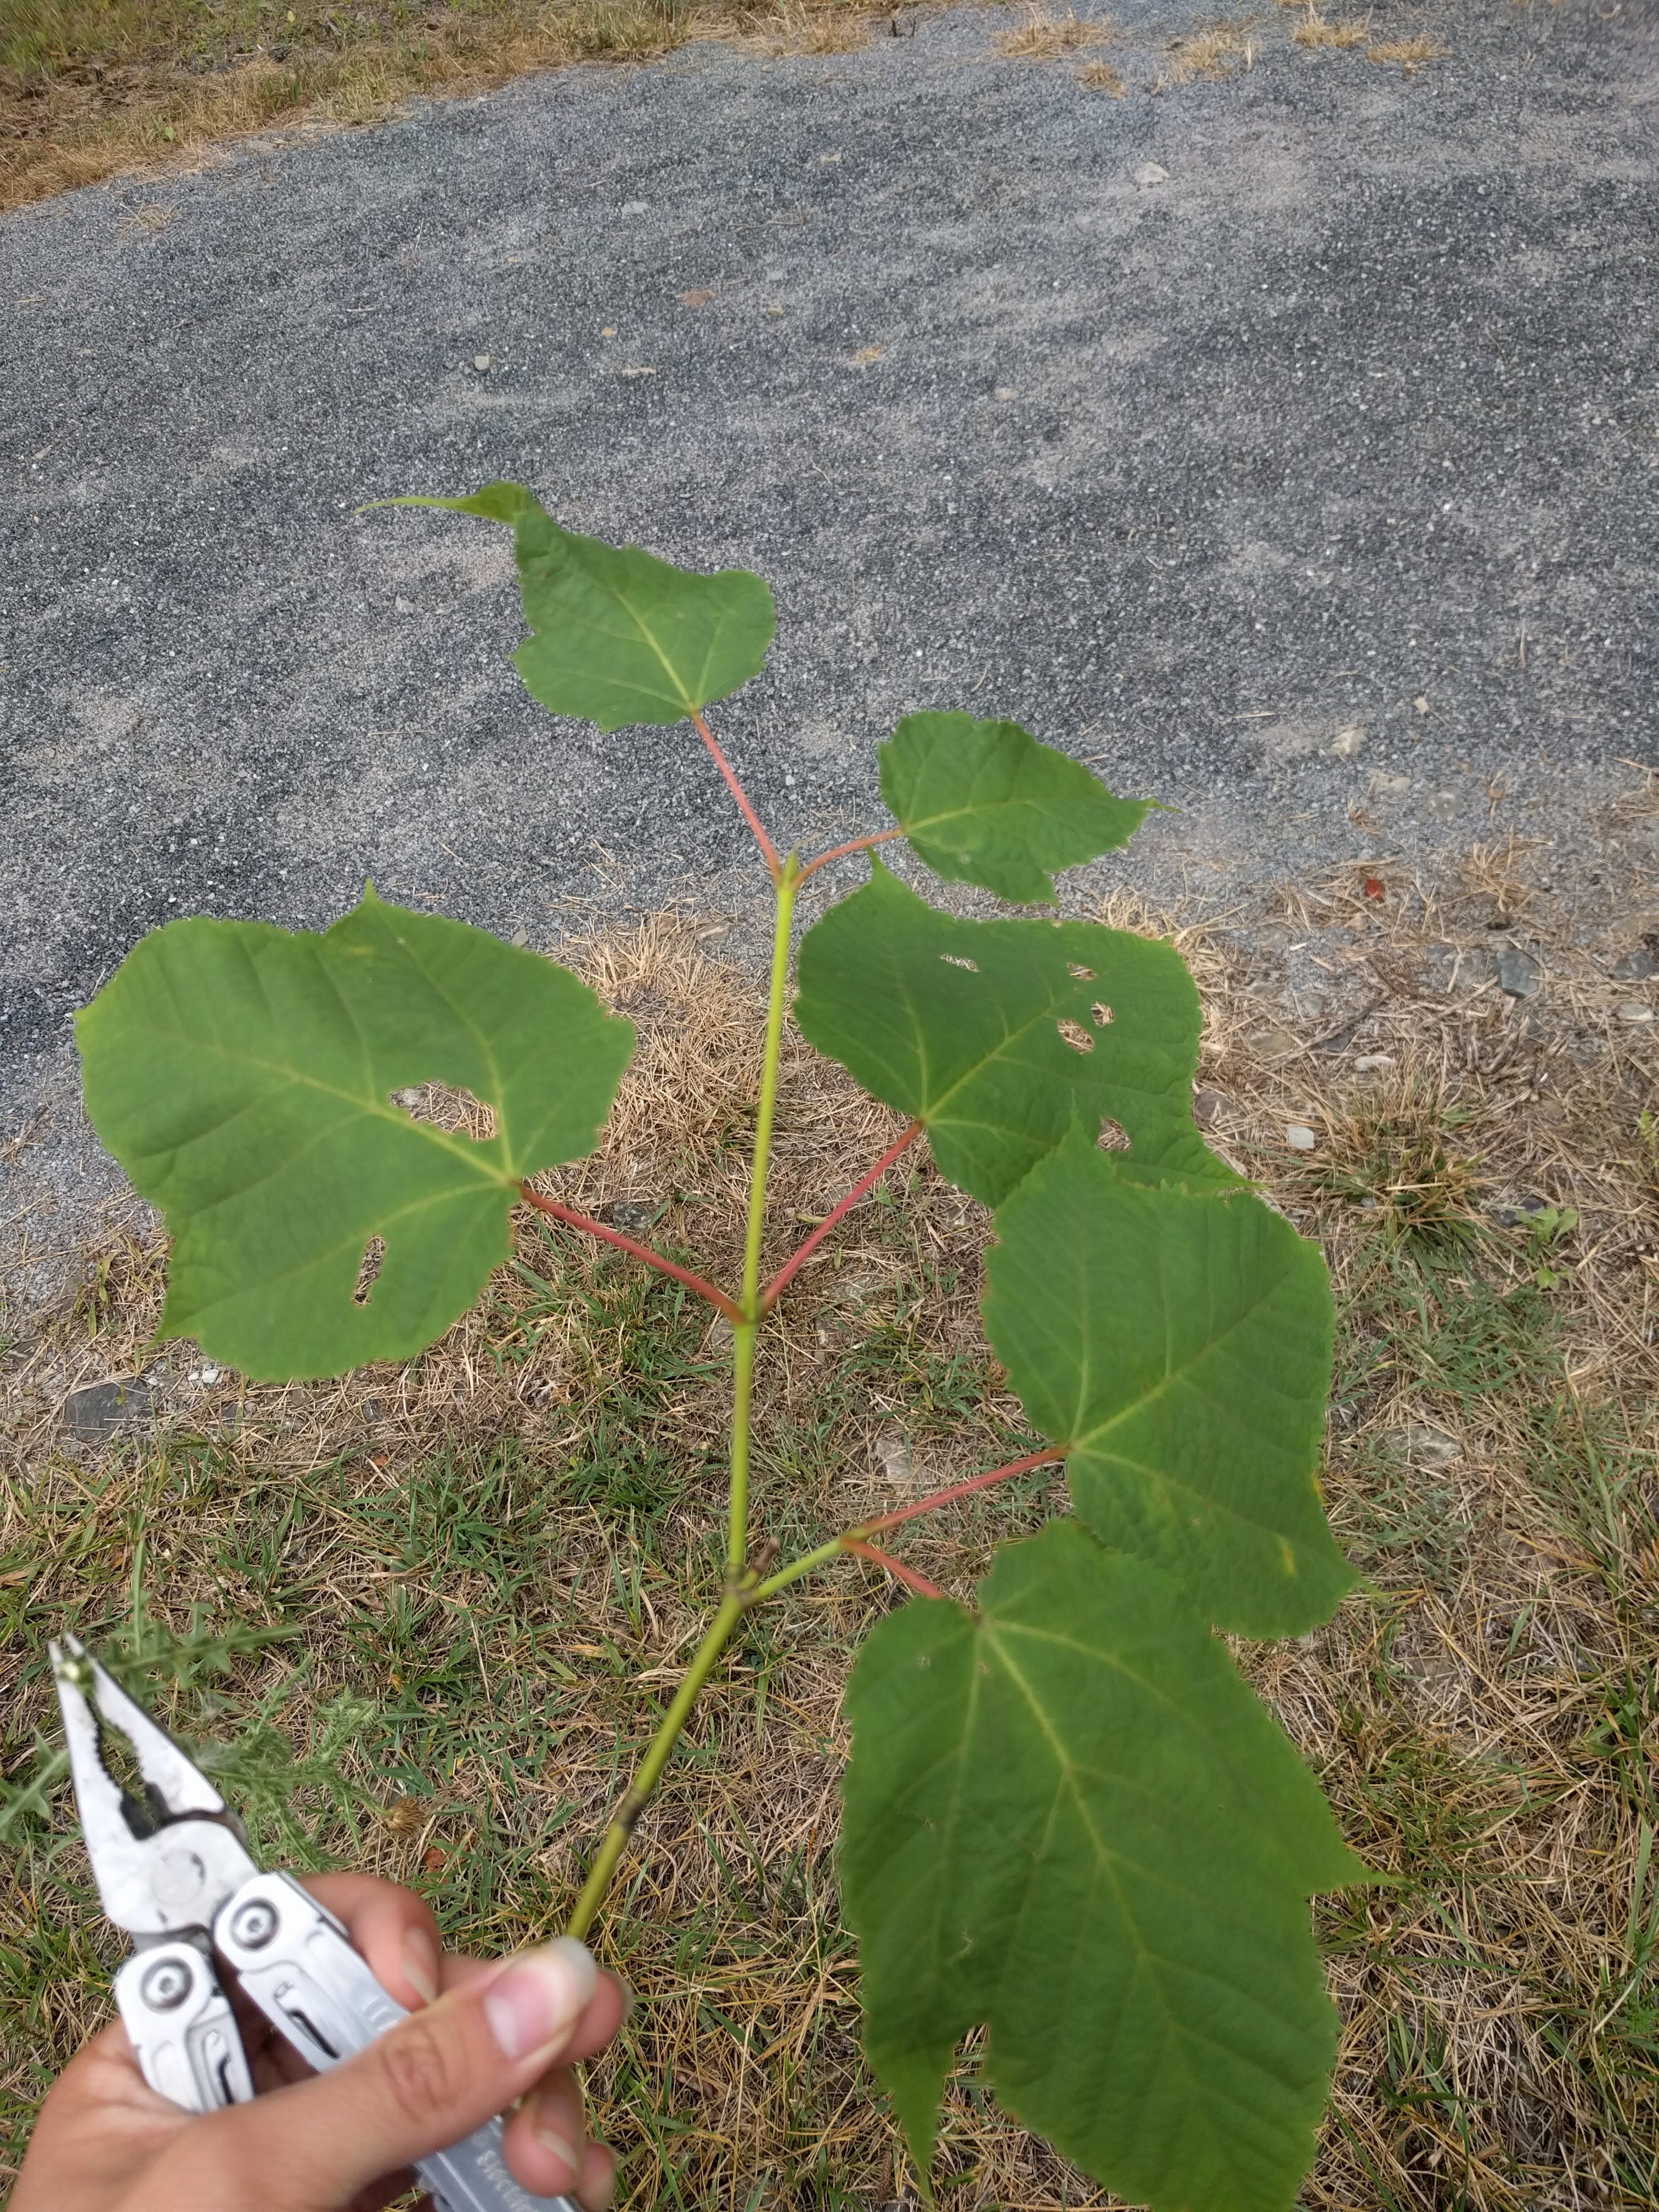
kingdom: Plantae
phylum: Tracheophyta
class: Magnoliopsida
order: Sapindales
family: Sapindaceae
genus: Acer
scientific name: Acer pensylvanicum
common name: Moosewood
